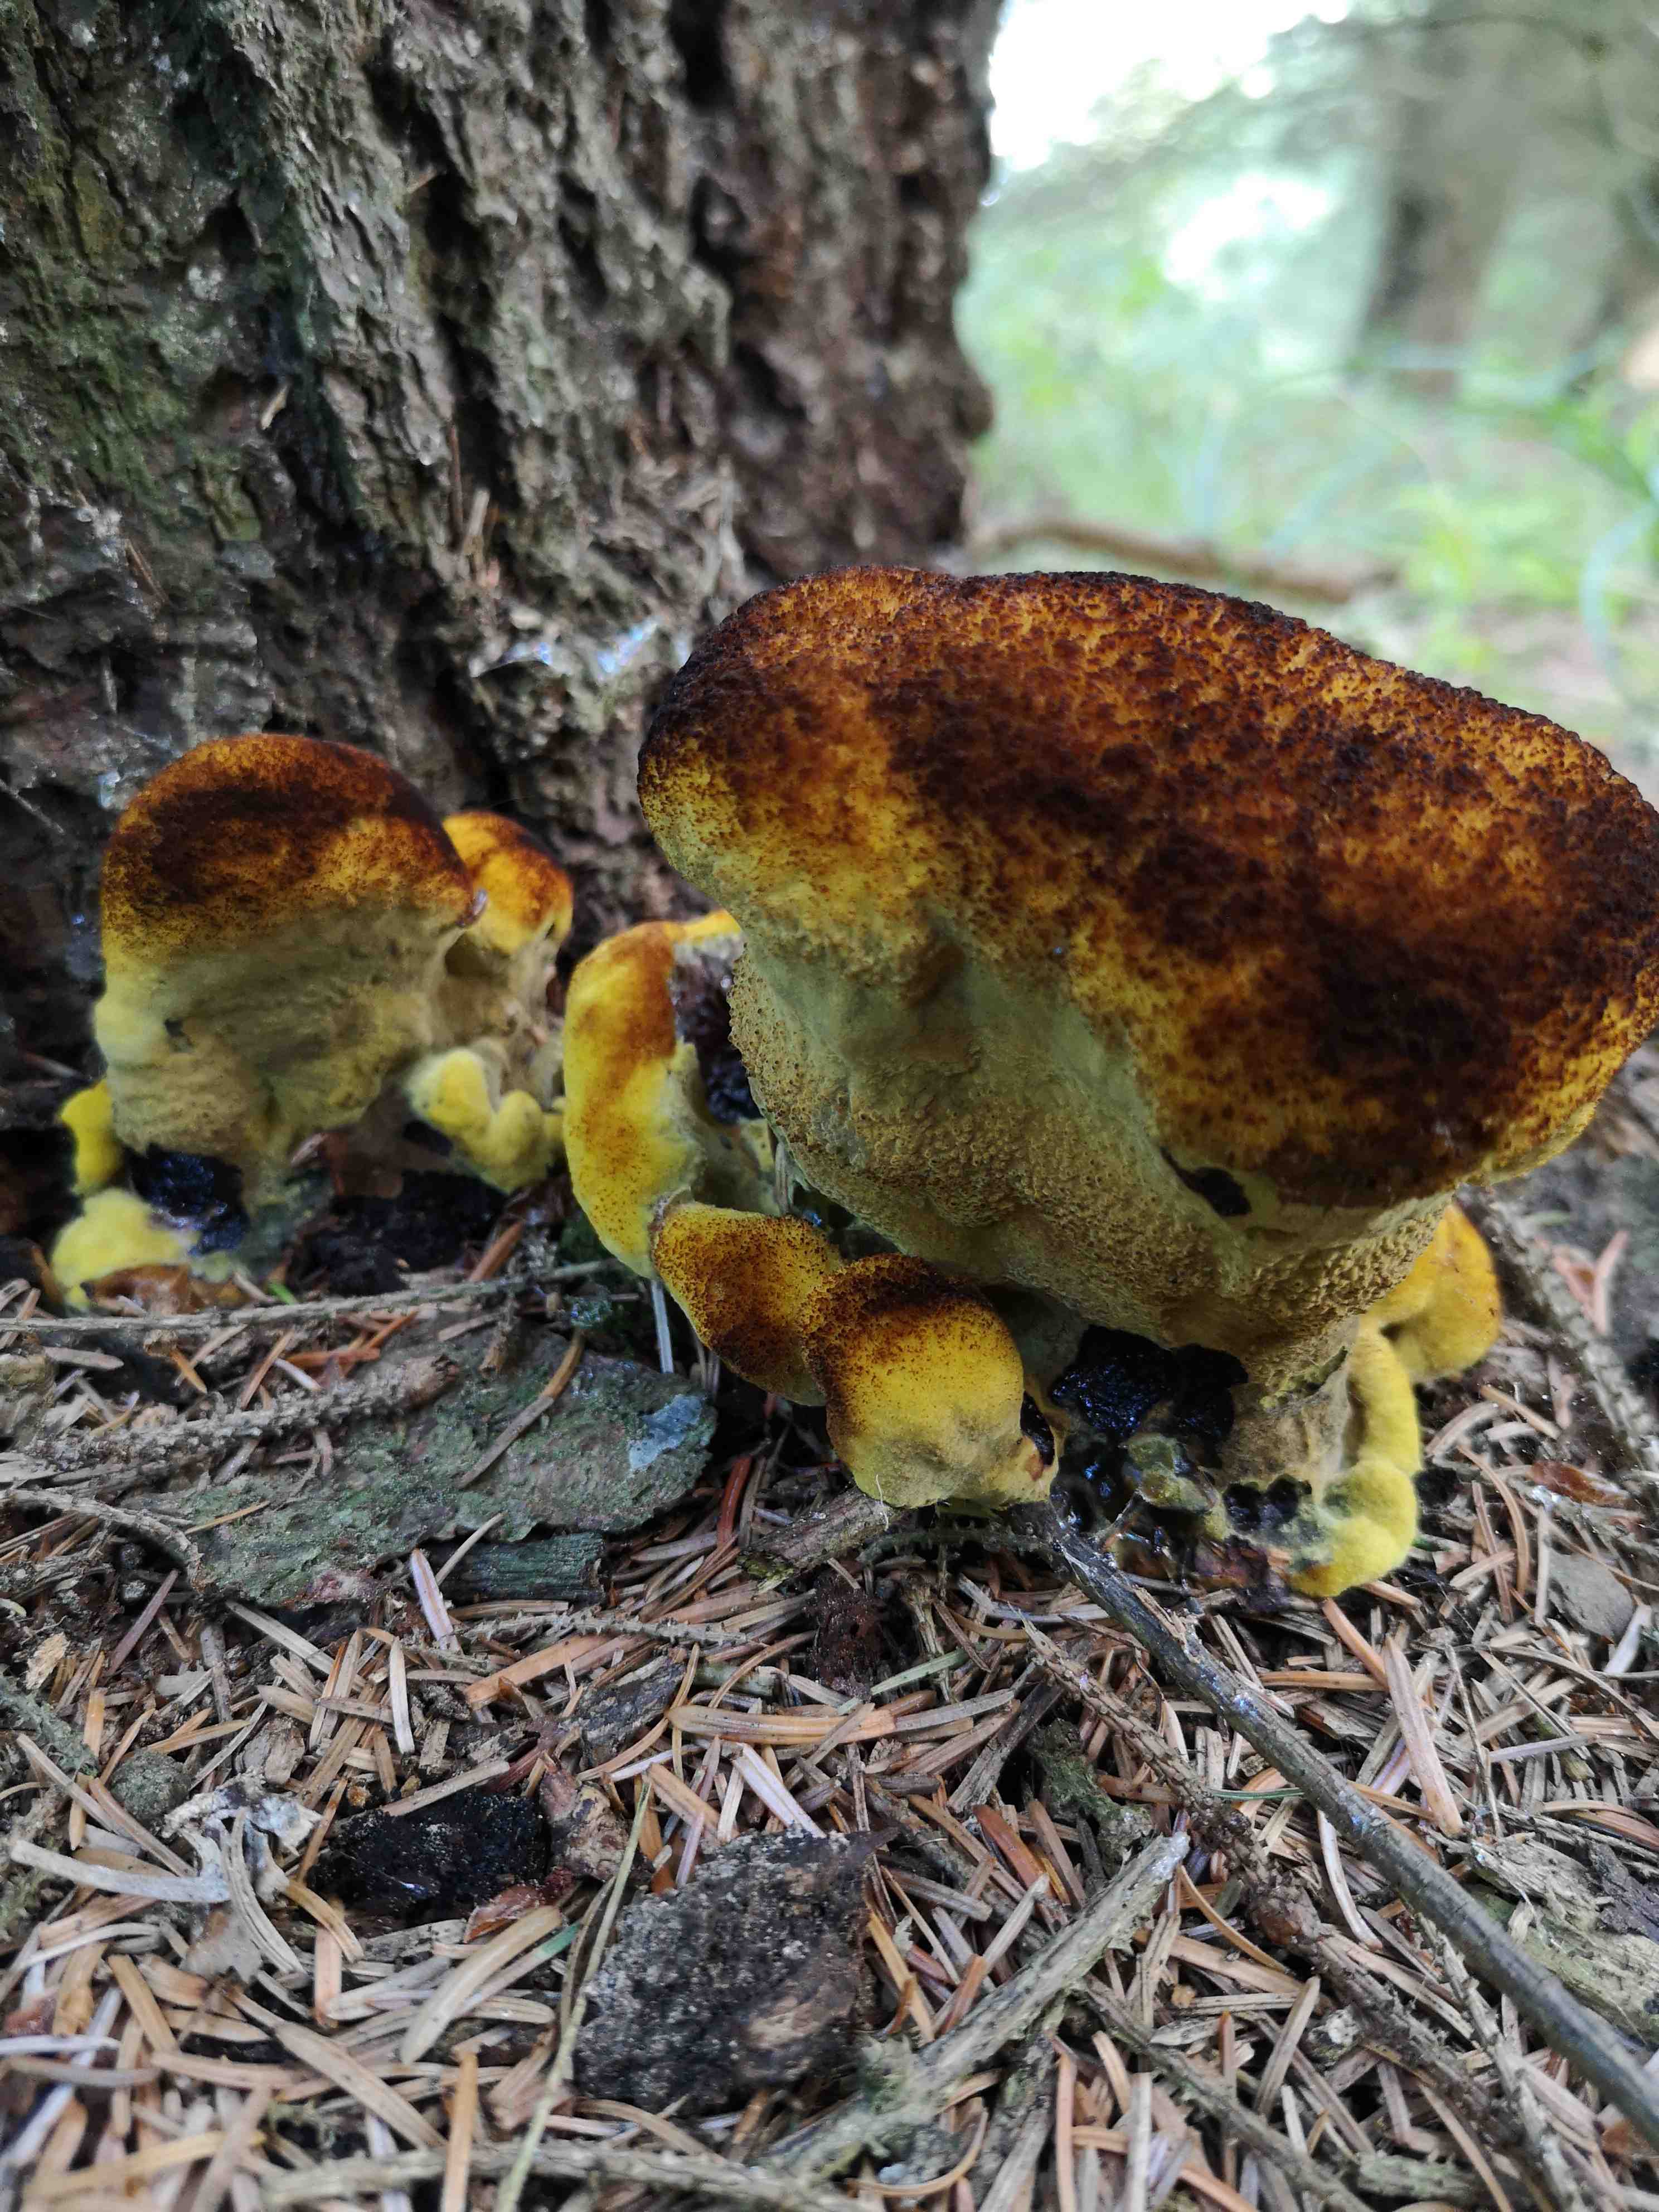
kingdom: Fungi
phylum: Basidiomycota
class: Agaricomycetes
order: Polyporales
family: Laetiporaceae
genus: Phaeolus
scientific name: Phaeolus schweinitzii
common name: brunporesvamp
